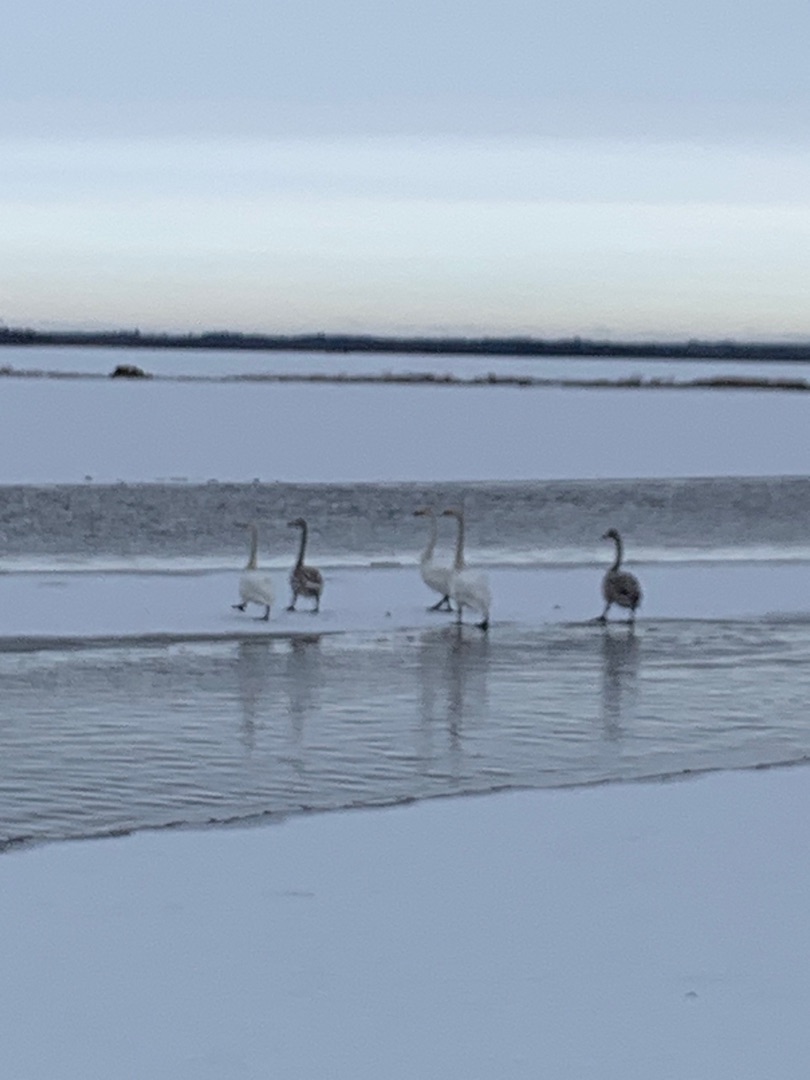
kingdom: Animalia
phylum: Chordata
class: Aves
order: Anseriformes
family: Anatidae
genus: Cygnus
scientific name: Cygnus cygnus
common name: Sangsvane
